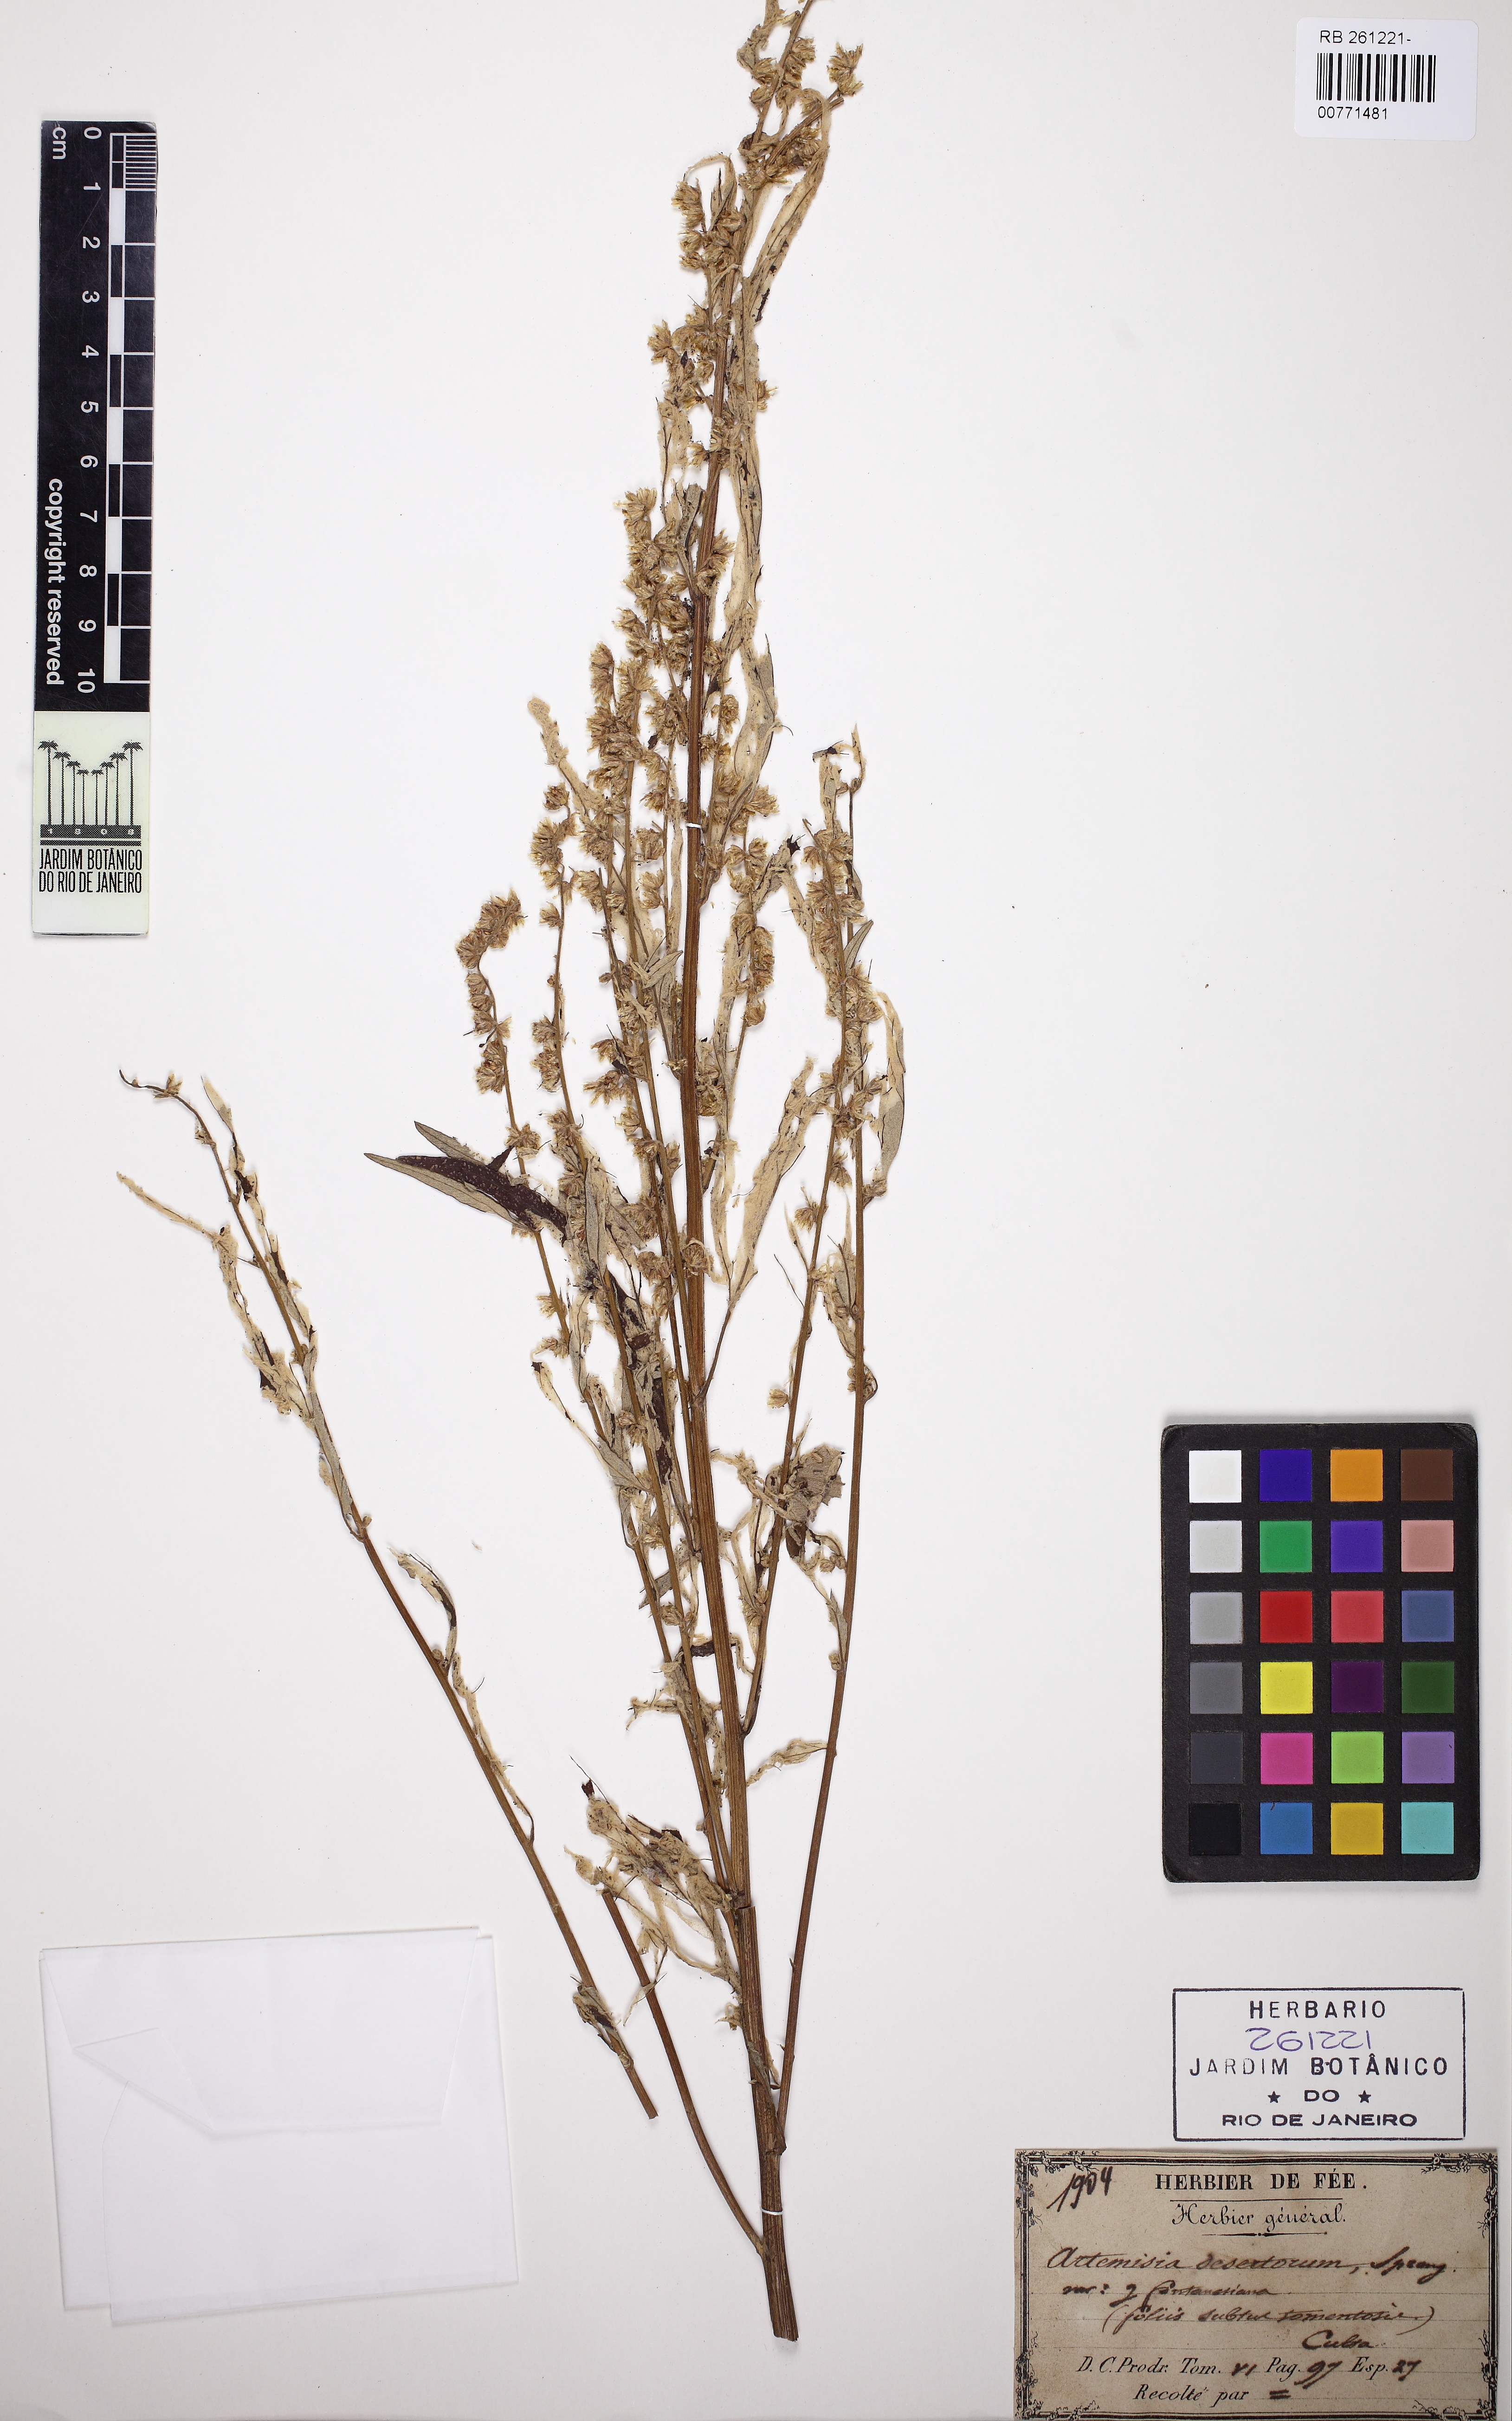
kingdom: Plantae
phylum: Tracheophyta
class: Magnoliopsida
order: Asterales
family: Asteraceae
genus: Artemisia
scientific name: Artemisia desertorum
